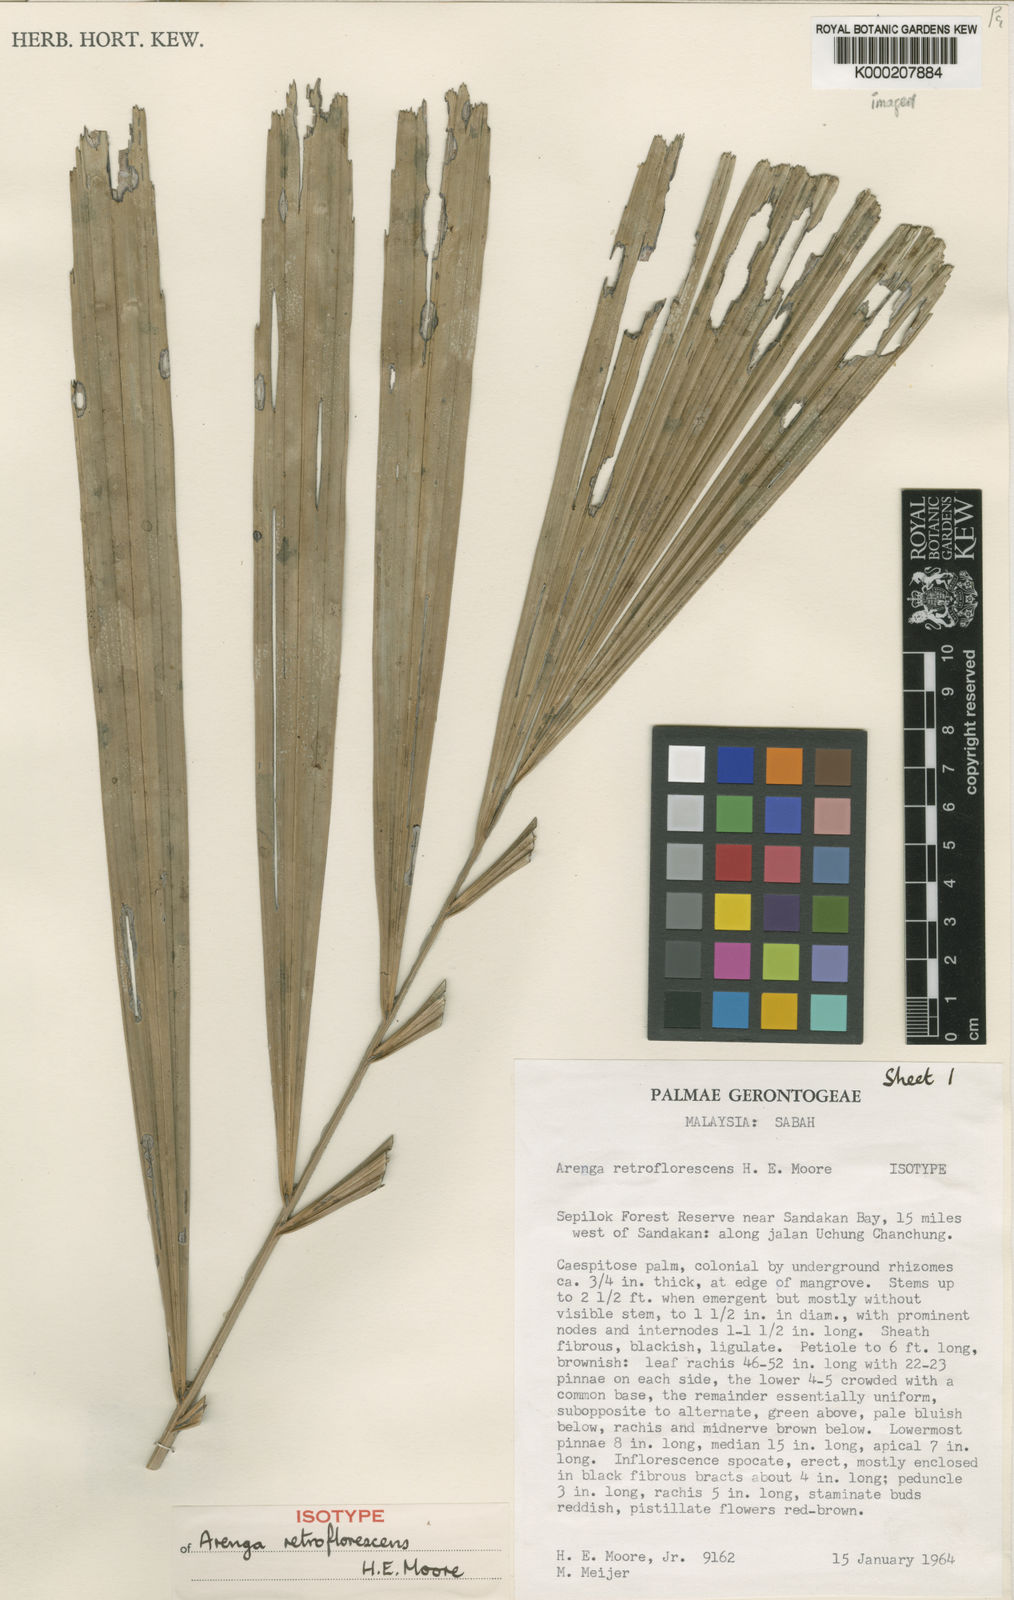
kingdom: Plantae
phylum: Tracheophyta
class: Liliopsida
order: Arecales
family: Arecaceae
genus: Arenga
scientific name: Arenga retroflorescens
